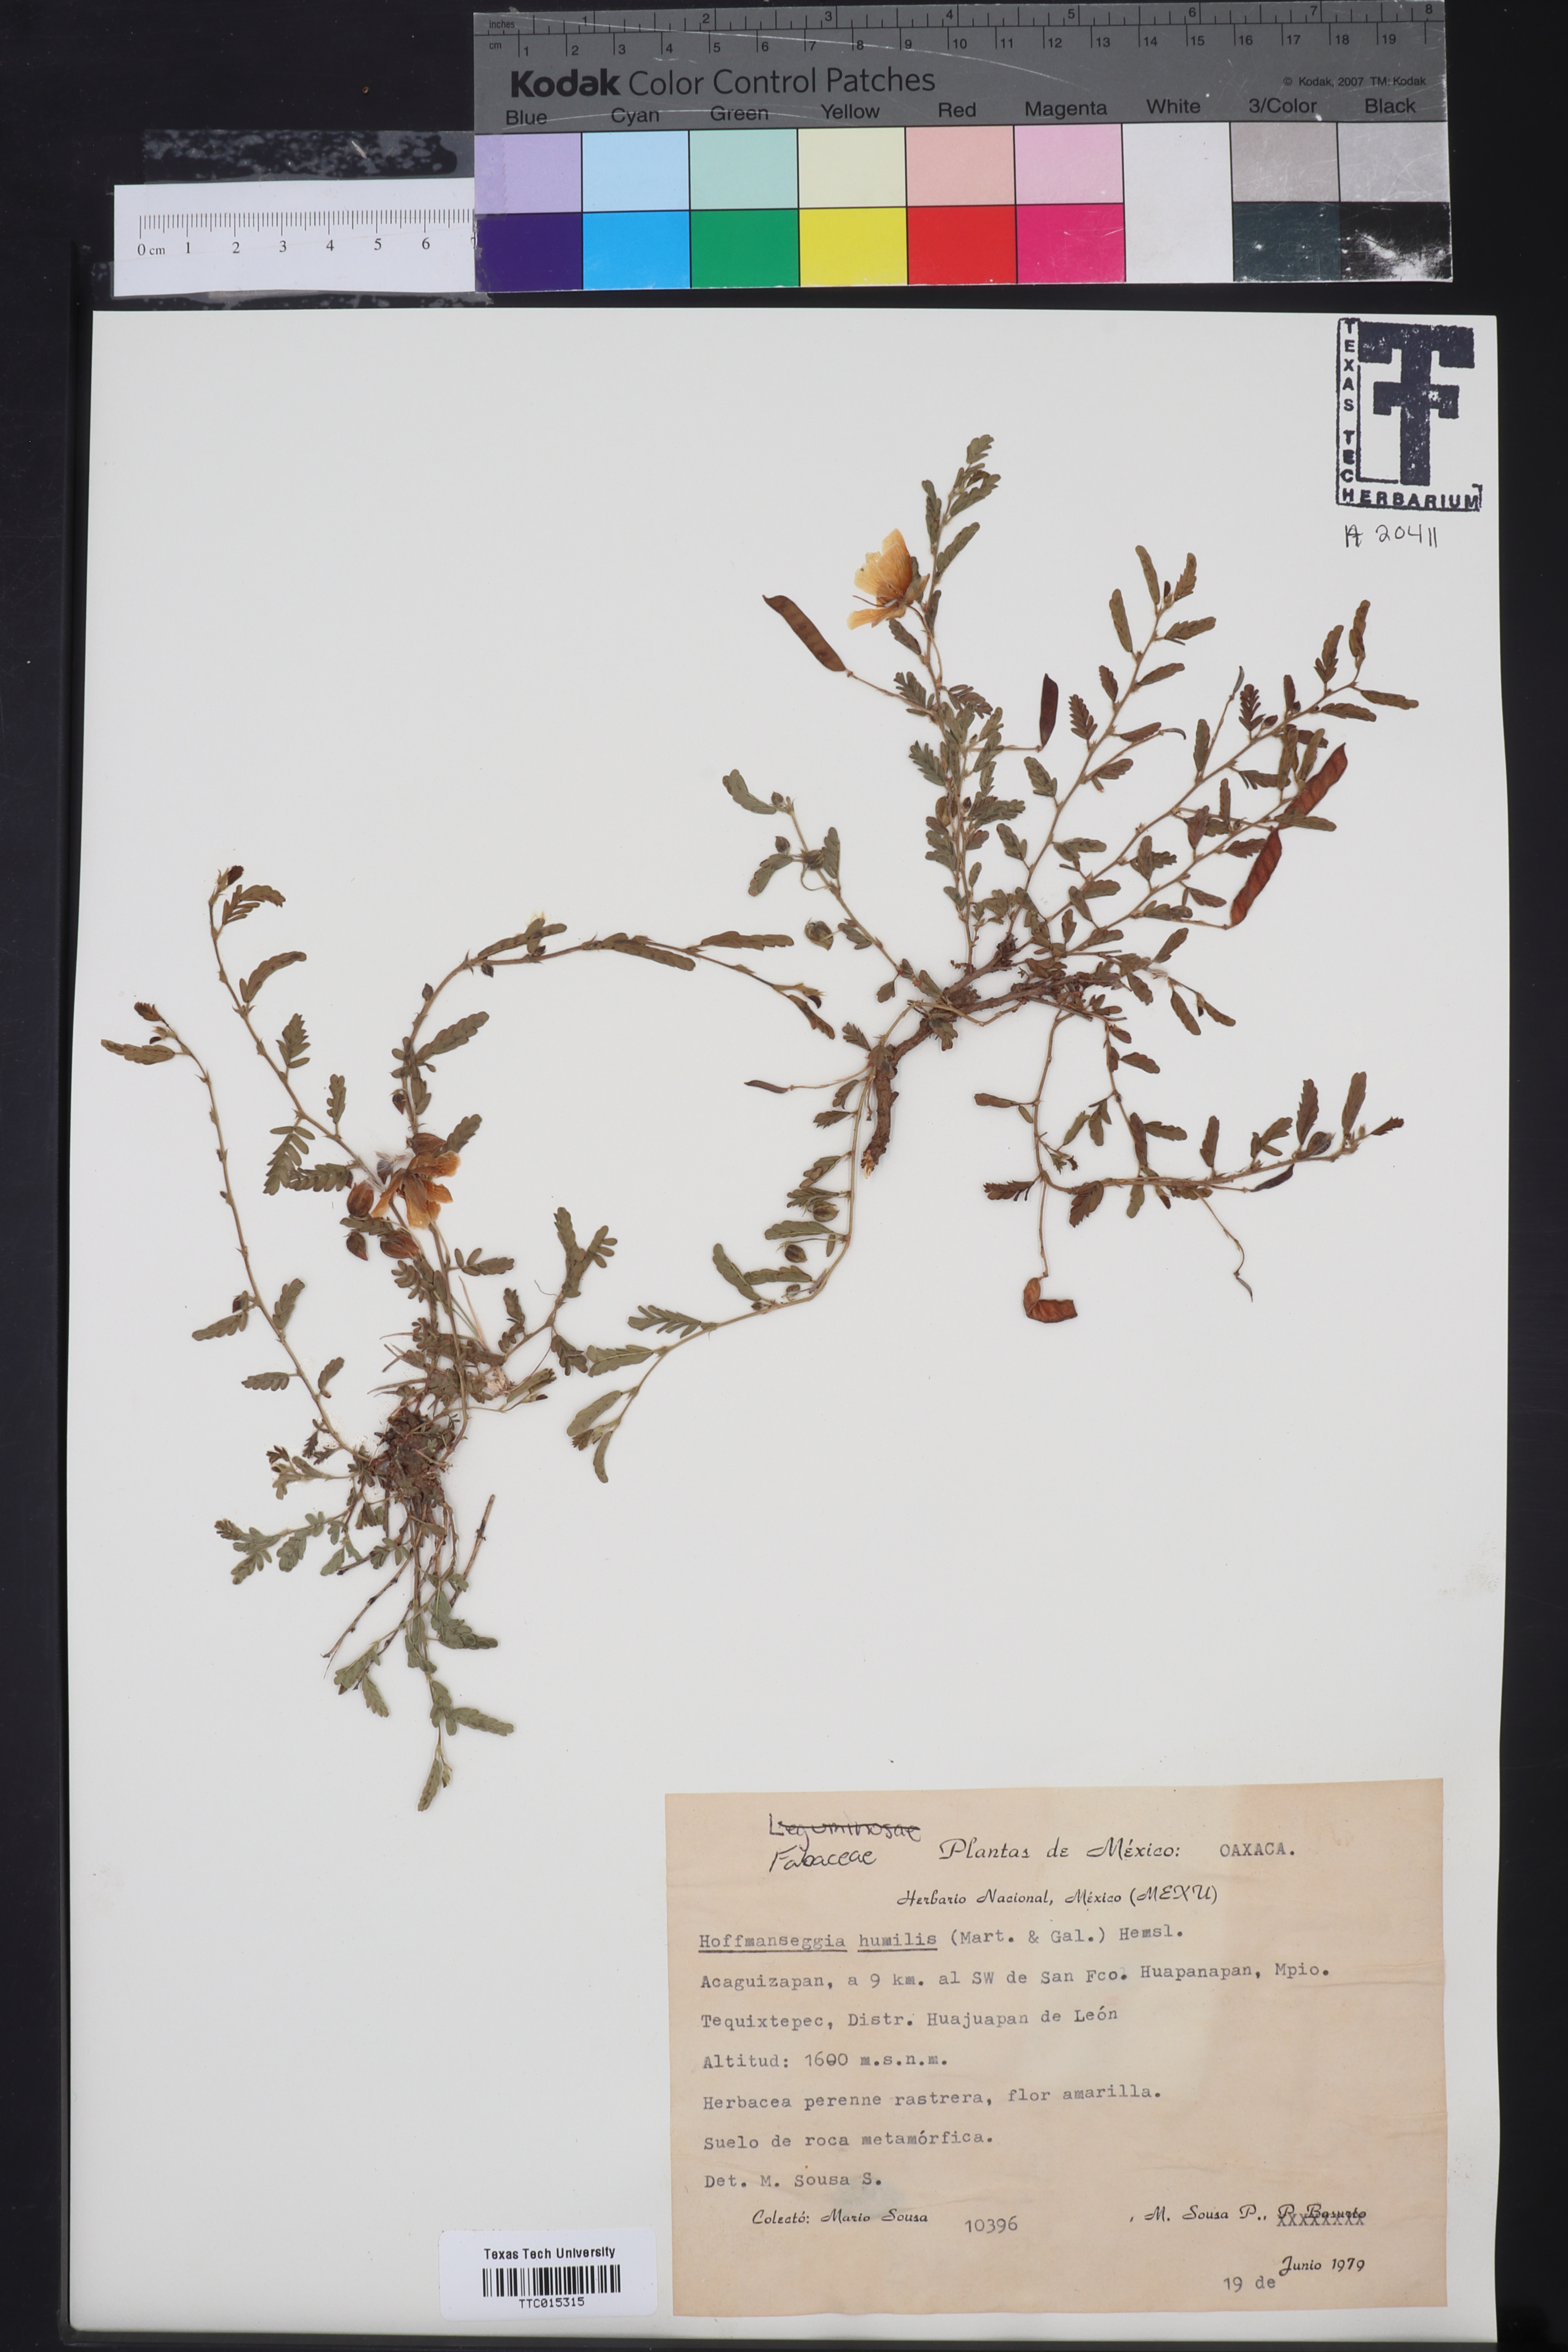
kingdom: Plantae
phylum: Tracheophyta
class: Magnoliopsida
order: Fabales
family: Fabaceae
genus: Hoffmannseggia
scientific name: Hoffmannseggia humilis
